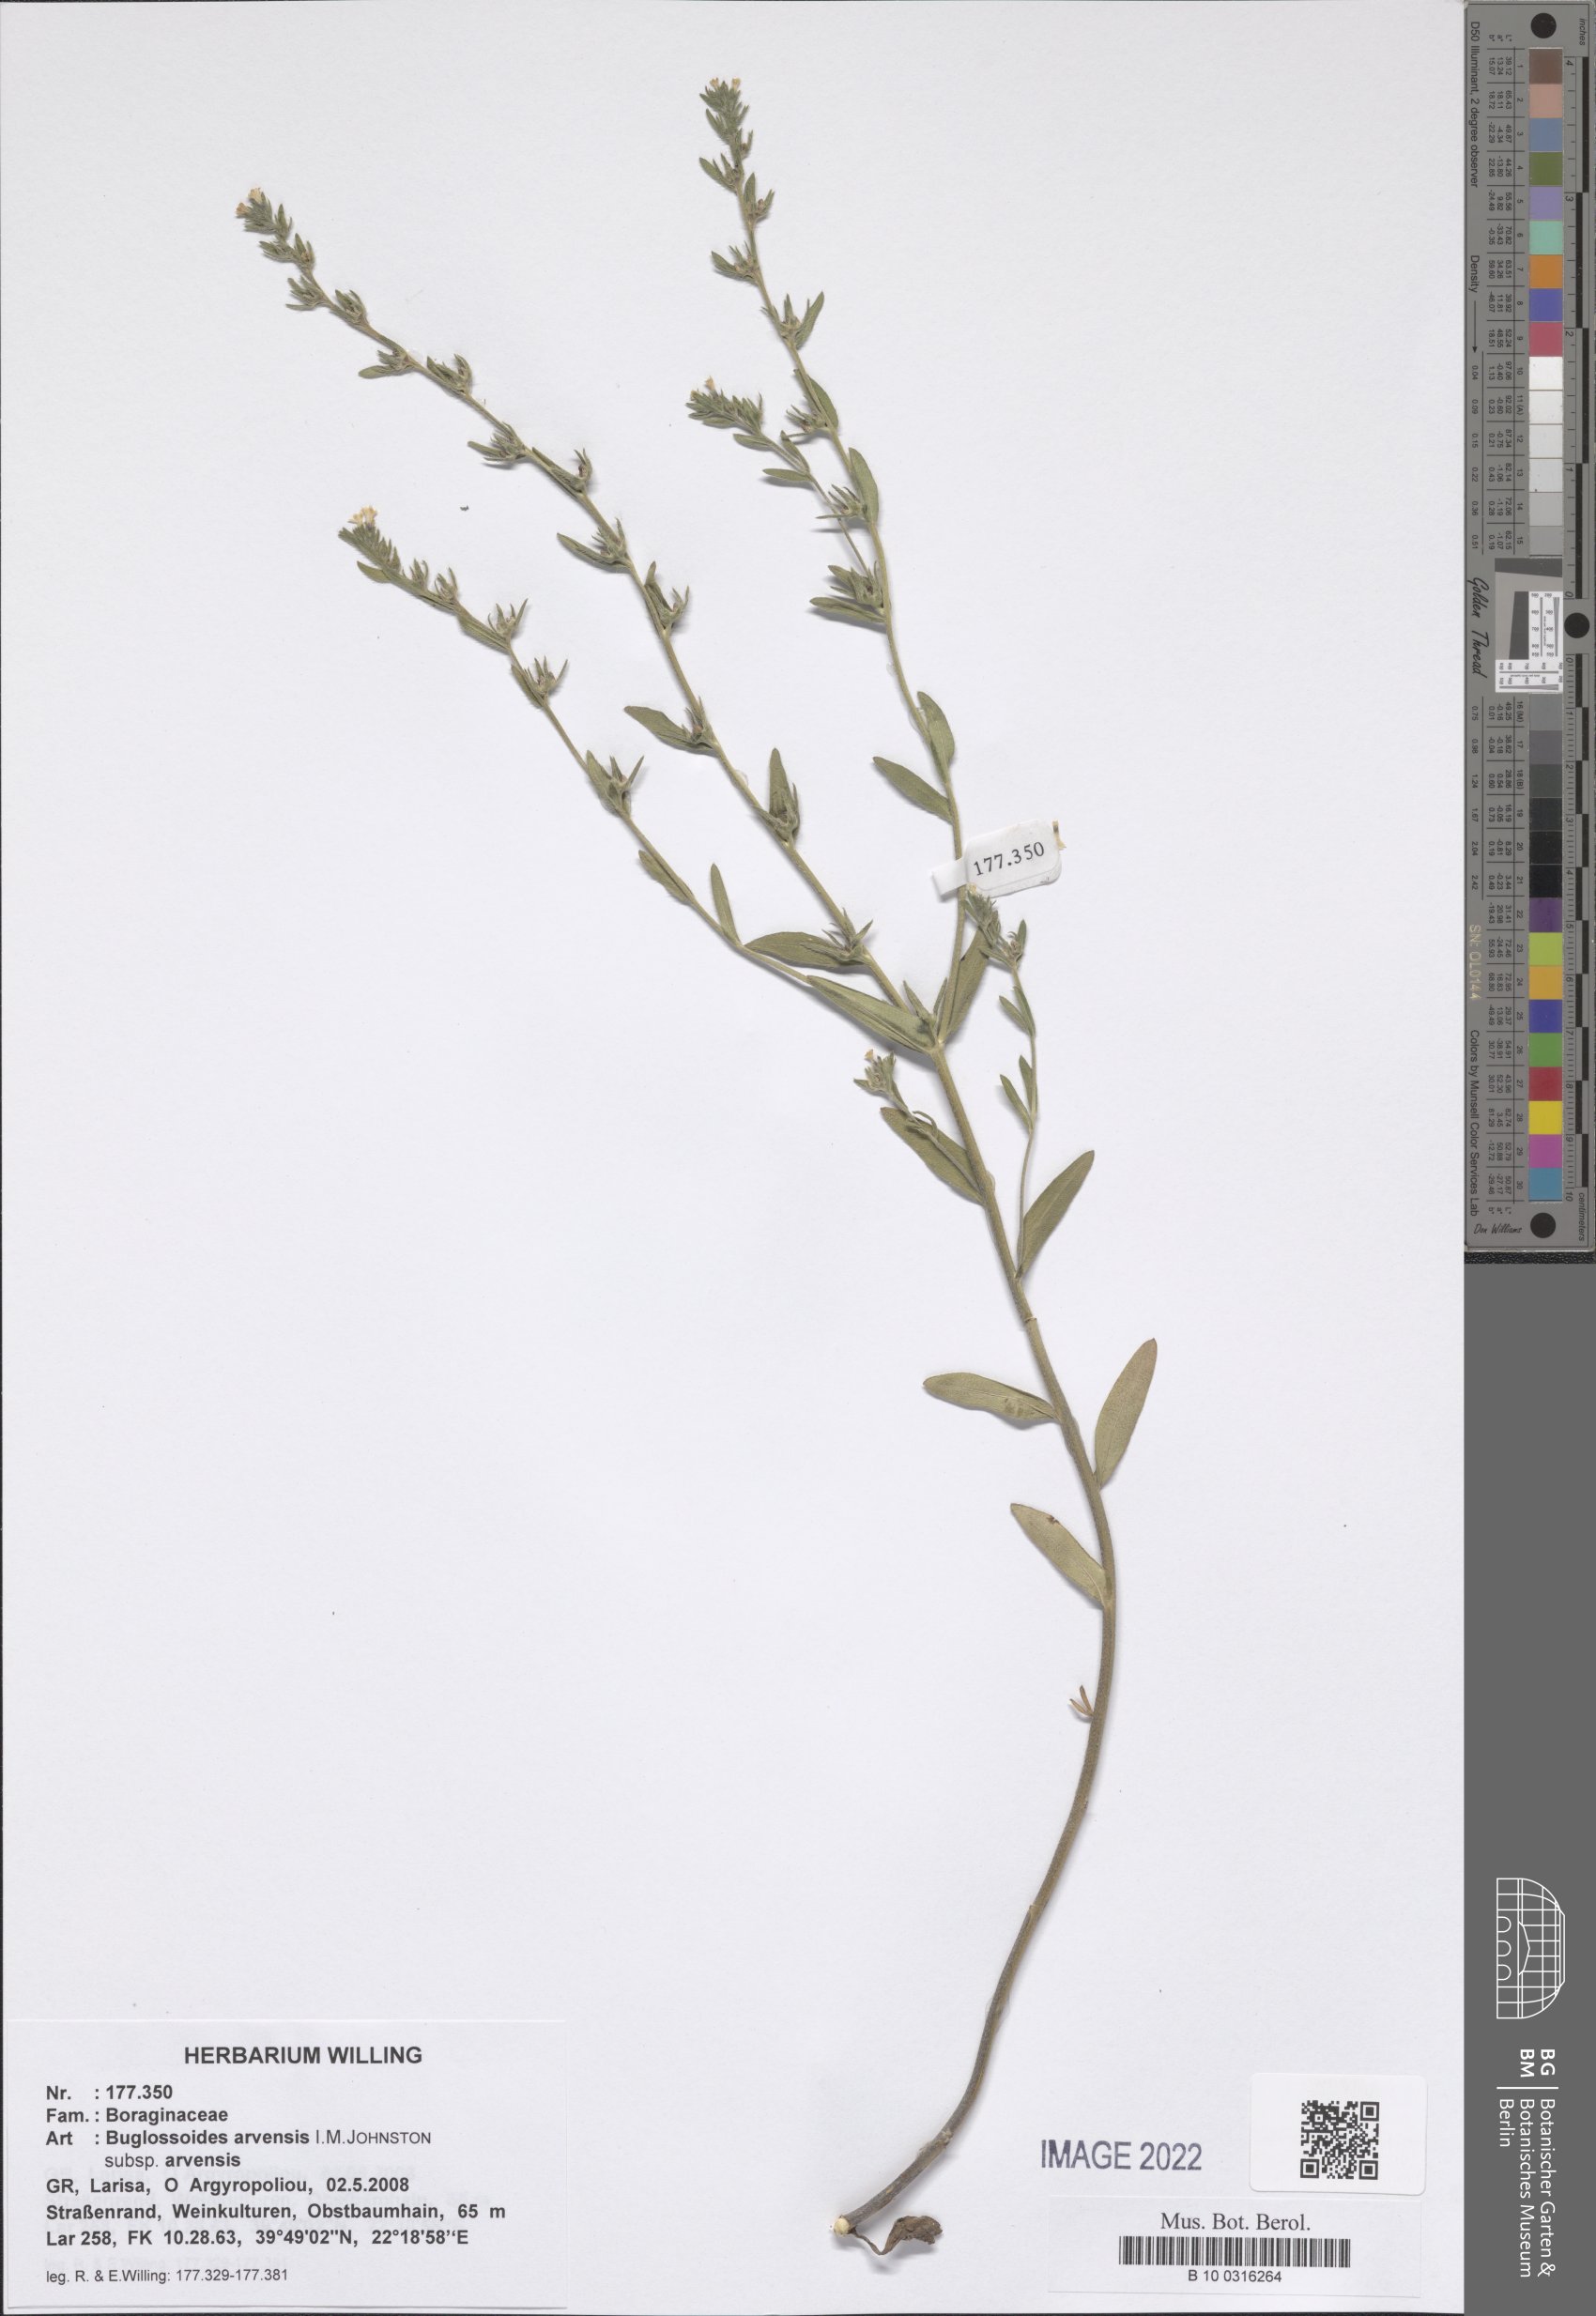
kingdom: Plantae
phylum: Tracheophyta
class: Magnoliopsida
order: Boraginales
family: Boraginaceae
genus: Buglossoides
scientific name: Buglossoides arvensis
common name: Corn gromwell
